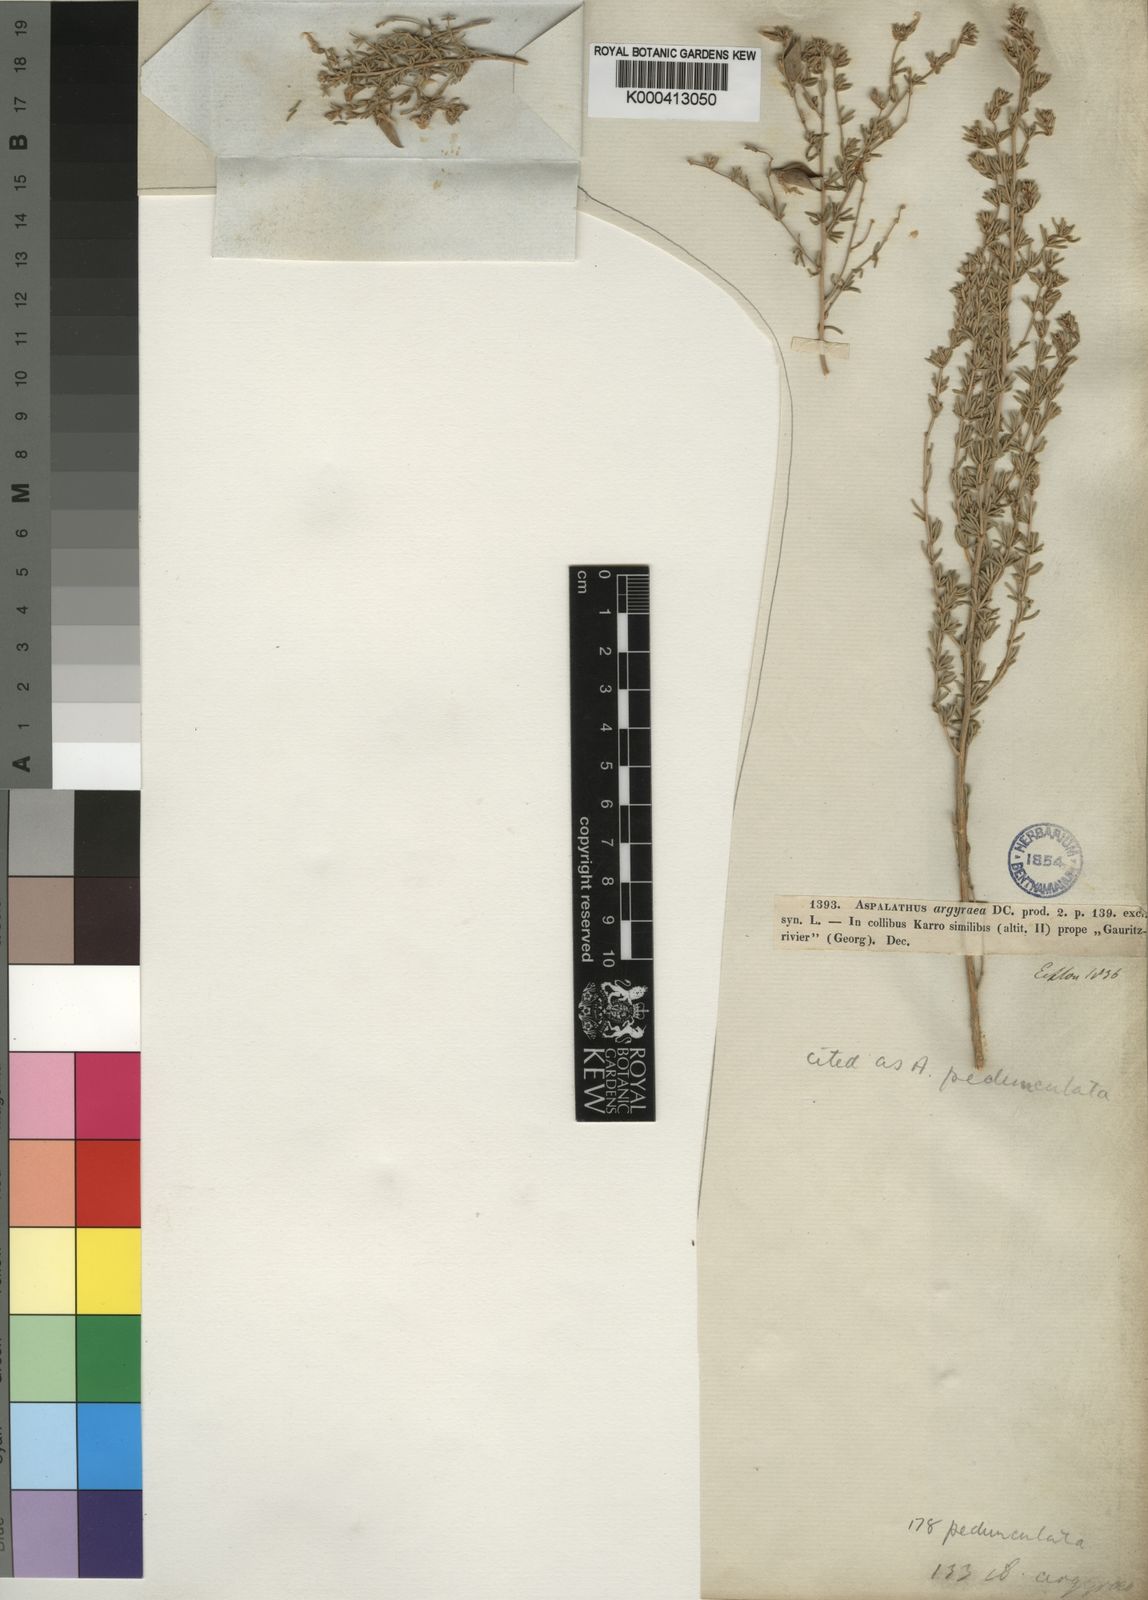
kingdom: Plantae
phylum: Tracheophyta
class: Magnoliopsida
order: Fabales
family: Fabaceae
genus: Aspalathus
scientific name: Aspalathus
